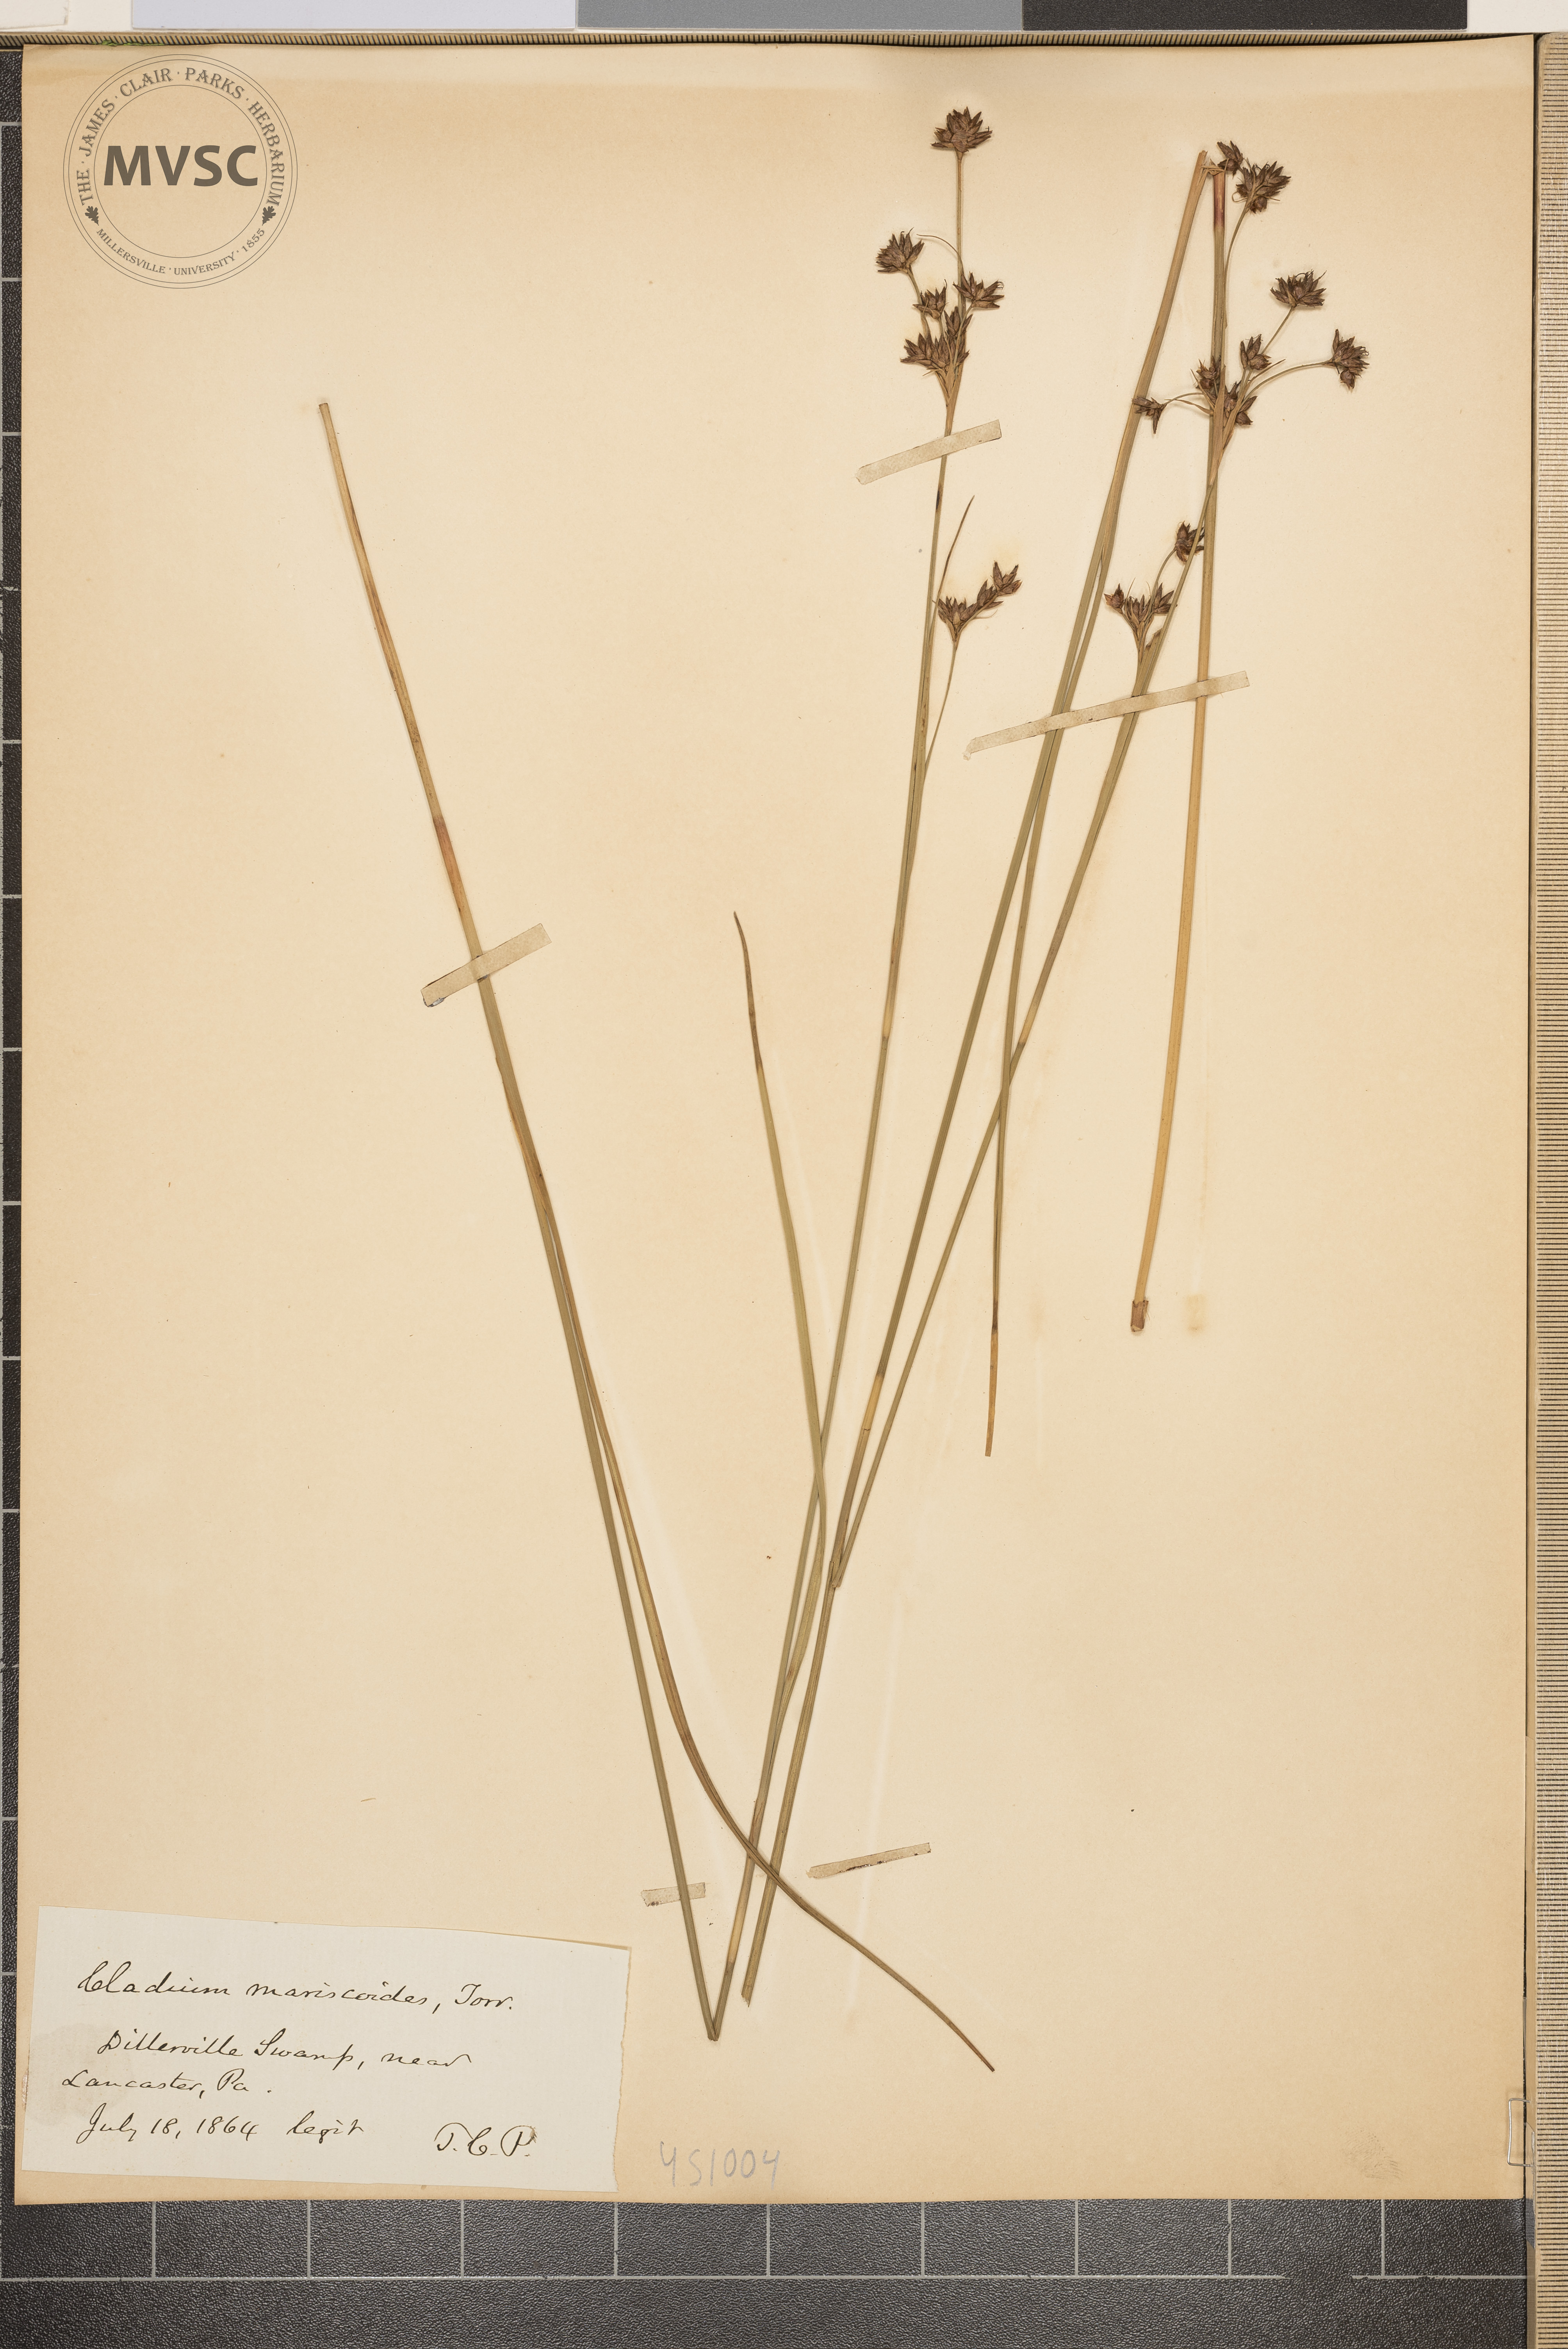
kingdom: Plantae
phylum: Tracheophyta
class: Liliopsida
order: Poales
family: Cyperaceae
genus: Cladium
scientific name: Cladium mariscoides
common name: Smooth sawgrass
